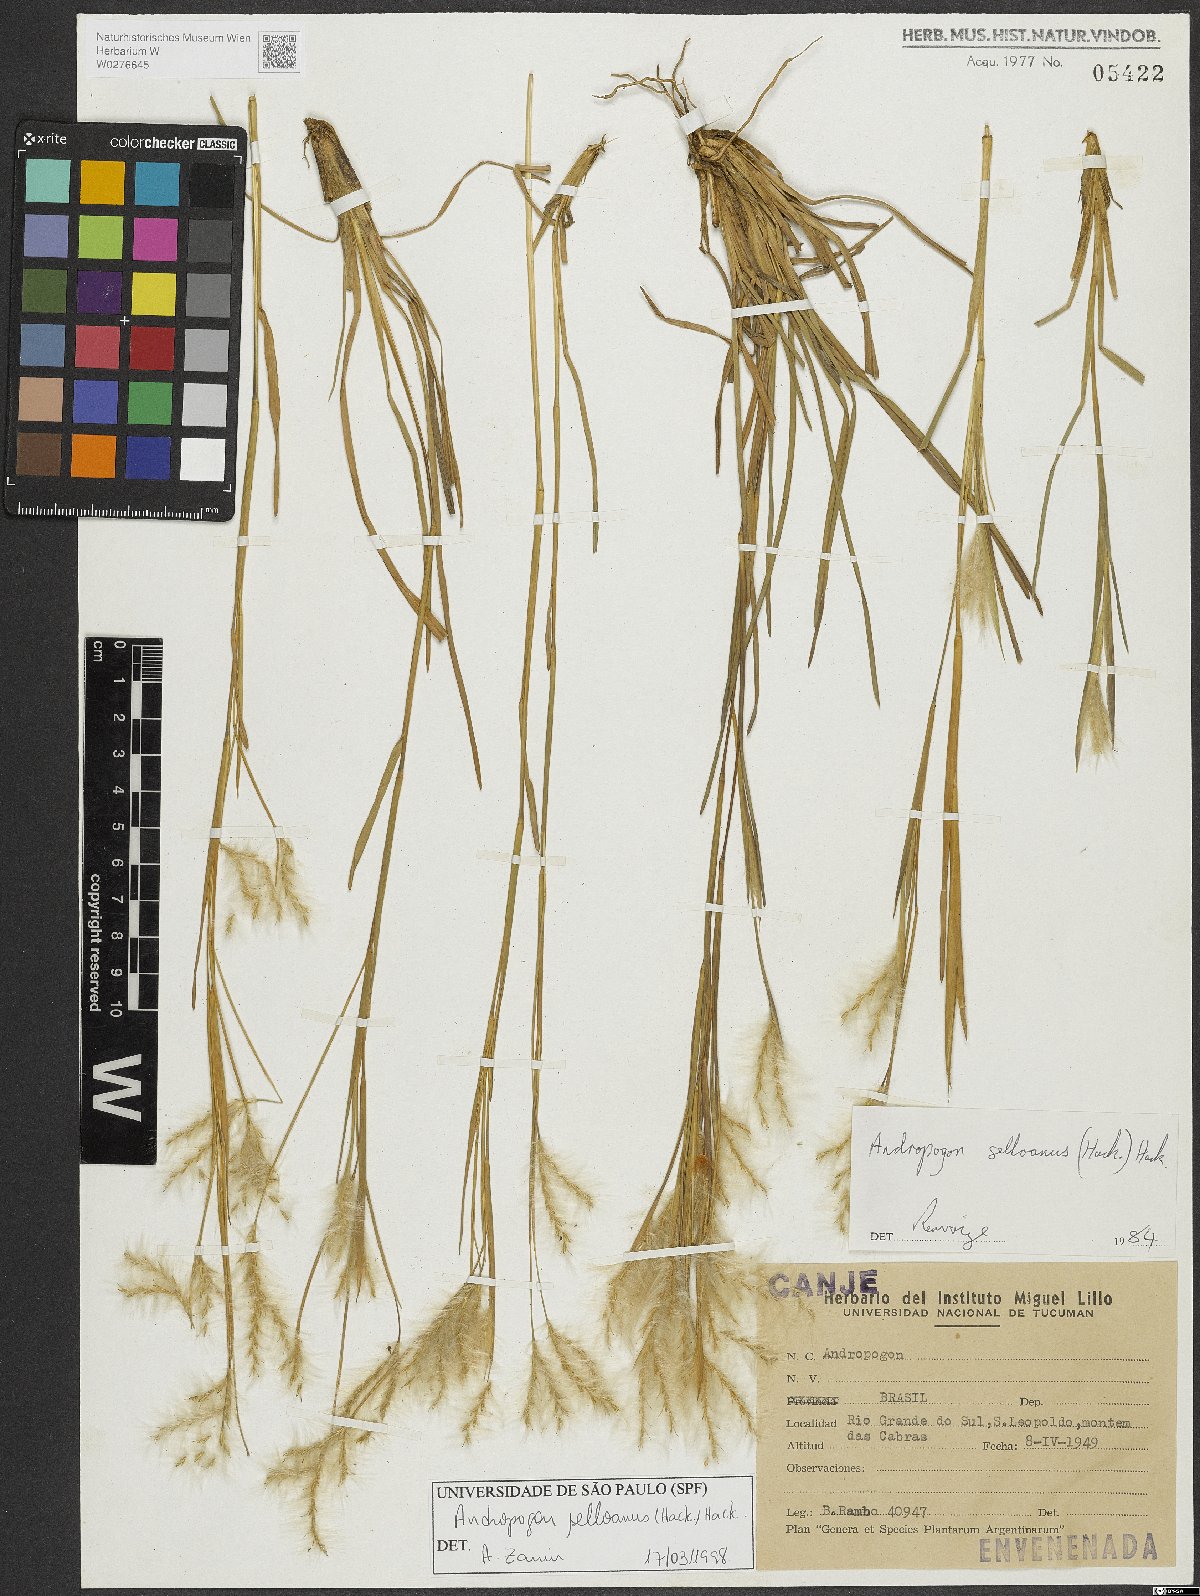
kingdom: Plantae
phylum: Tracheophyta
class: Liliopsida
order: Poales
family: Poaceae
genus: Andropogon
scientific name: Andropogon selloanus
